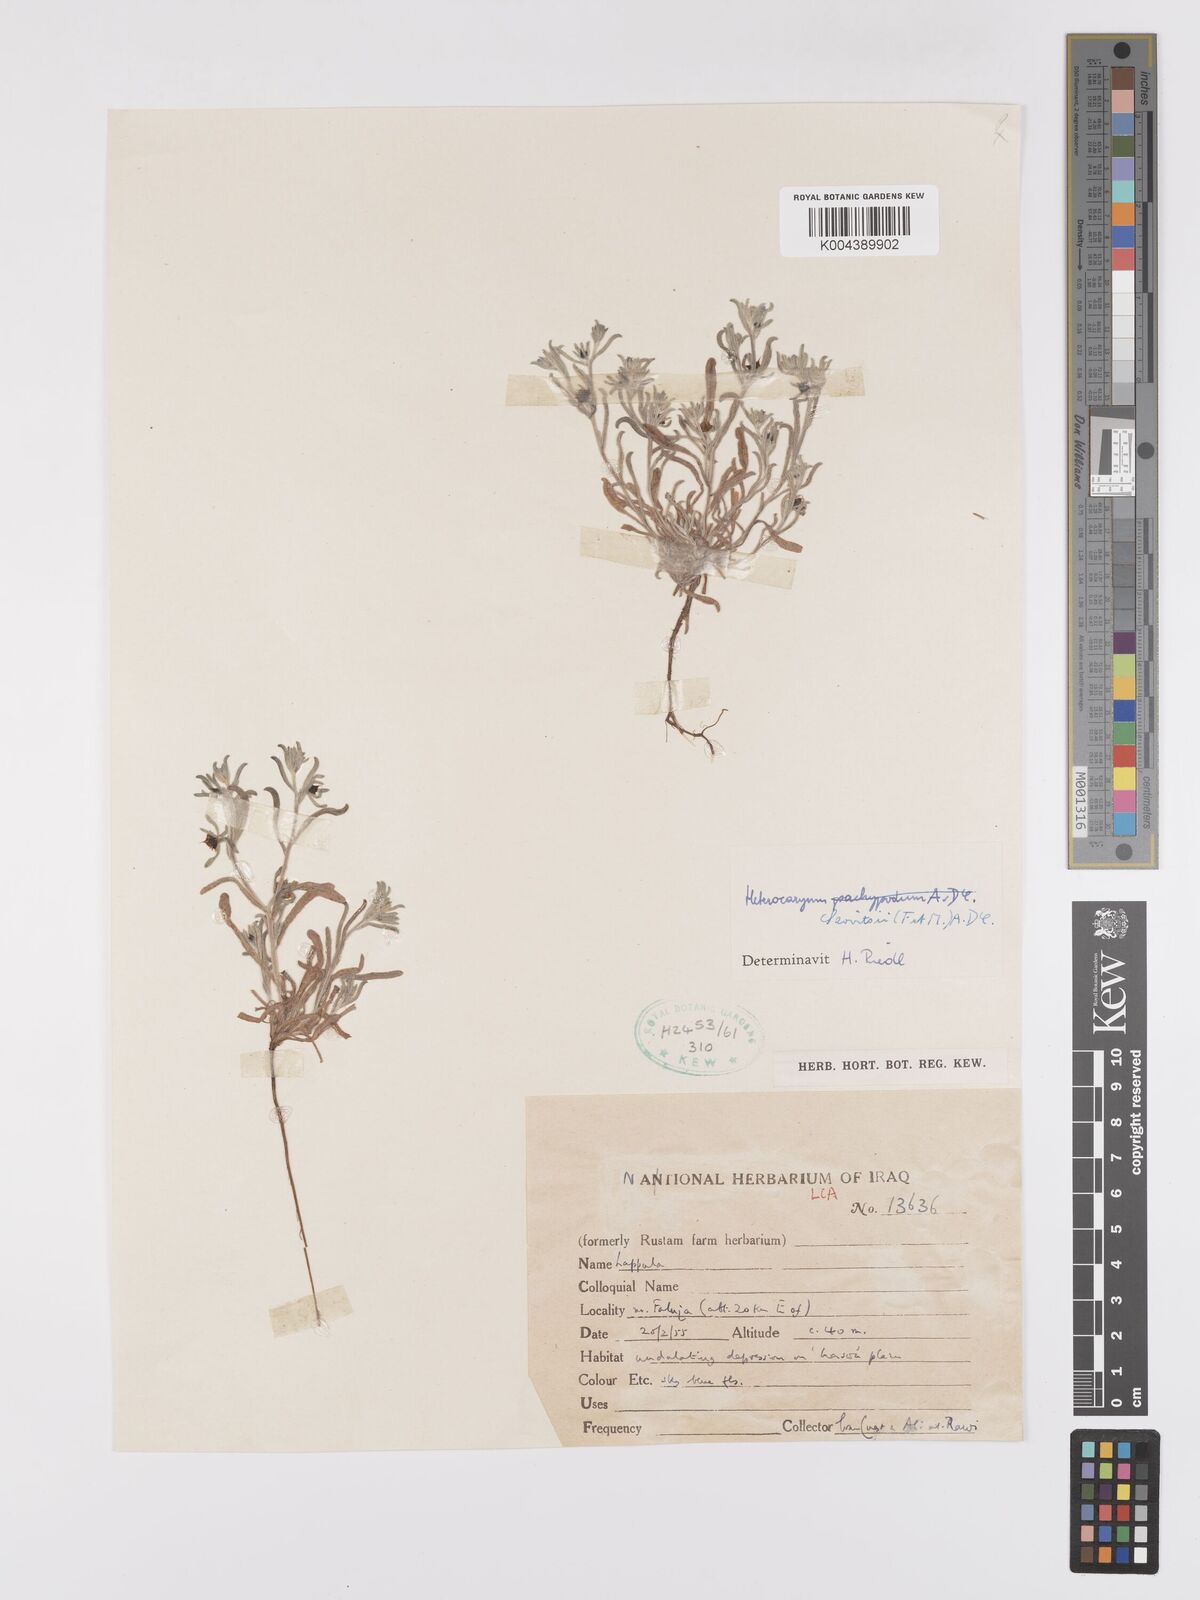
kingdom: Plantae
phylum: Tracheophyta
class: Magnoliopsida
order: Boraginales
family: Boraginaceae
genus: Pseudoheterocaryum
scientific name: Pseudoheterocaryum szovitsianum
